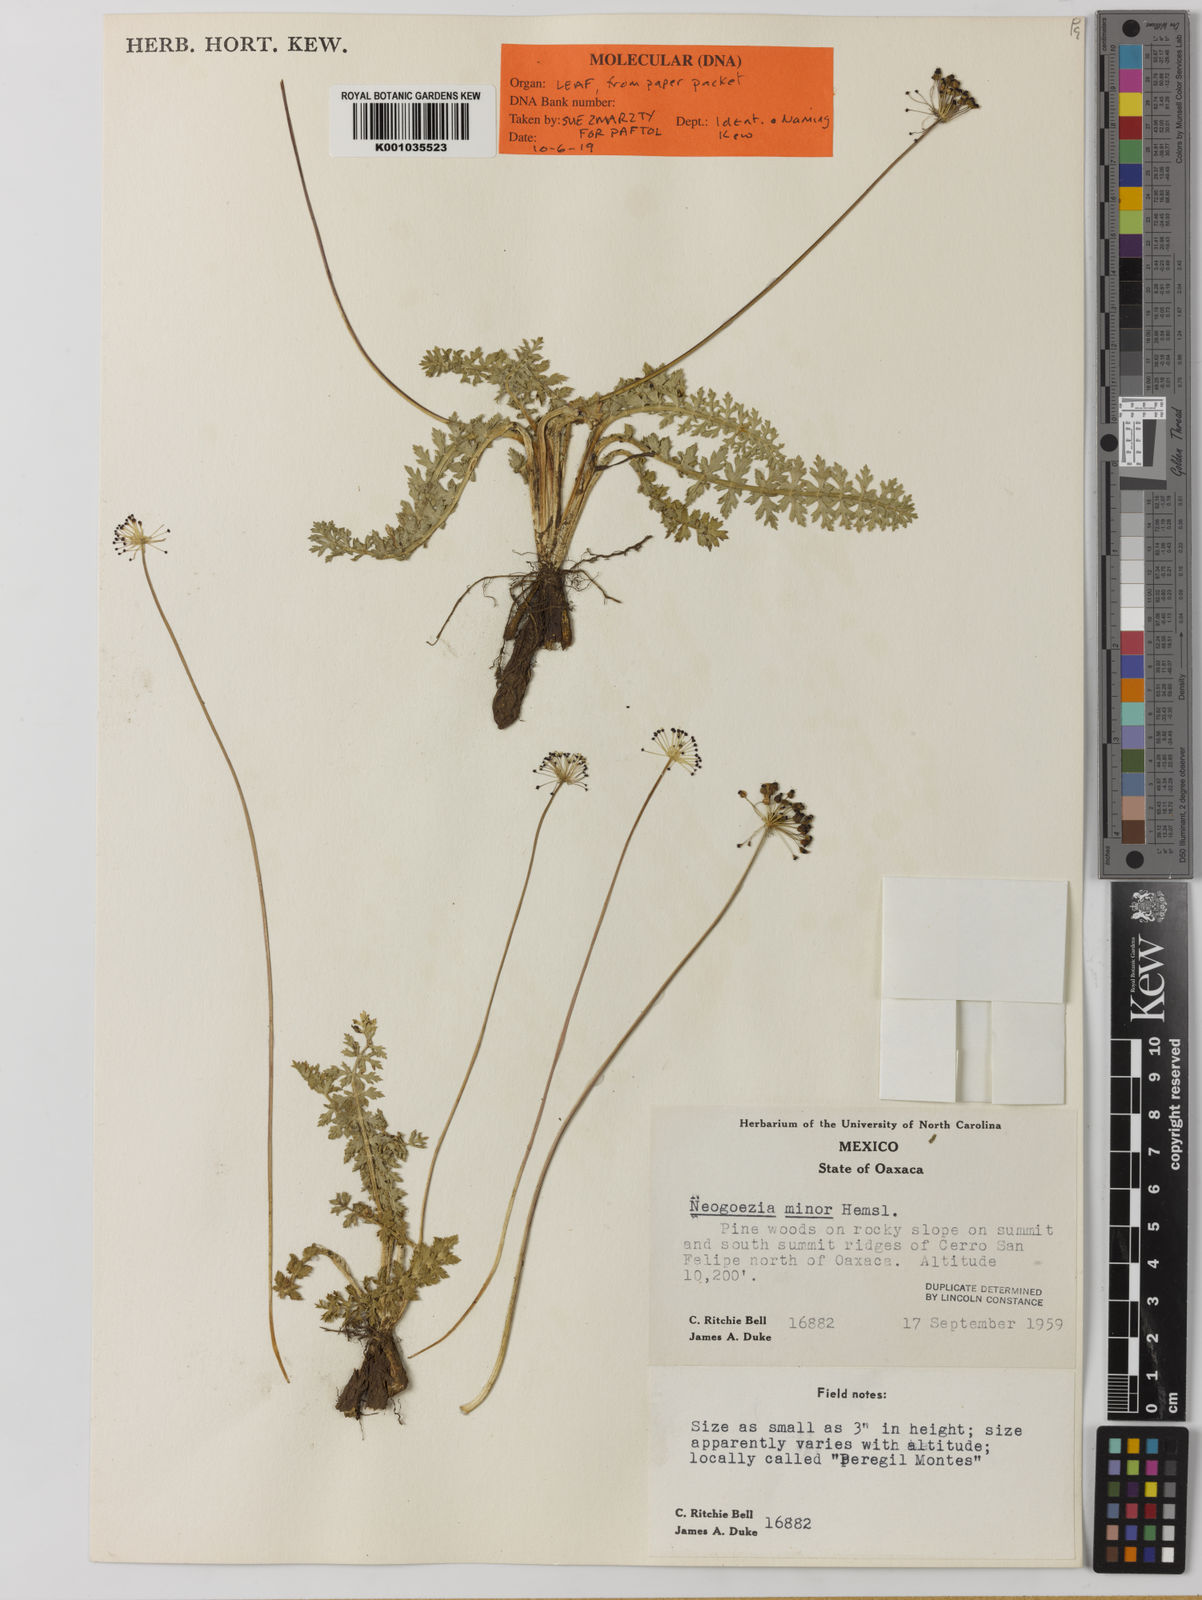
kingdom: Plantae
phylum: Tracheophyta
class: Magnoliopsida
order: Apiales
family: Apiaceae
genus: Neogoezia
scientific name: Neogoezia minor
